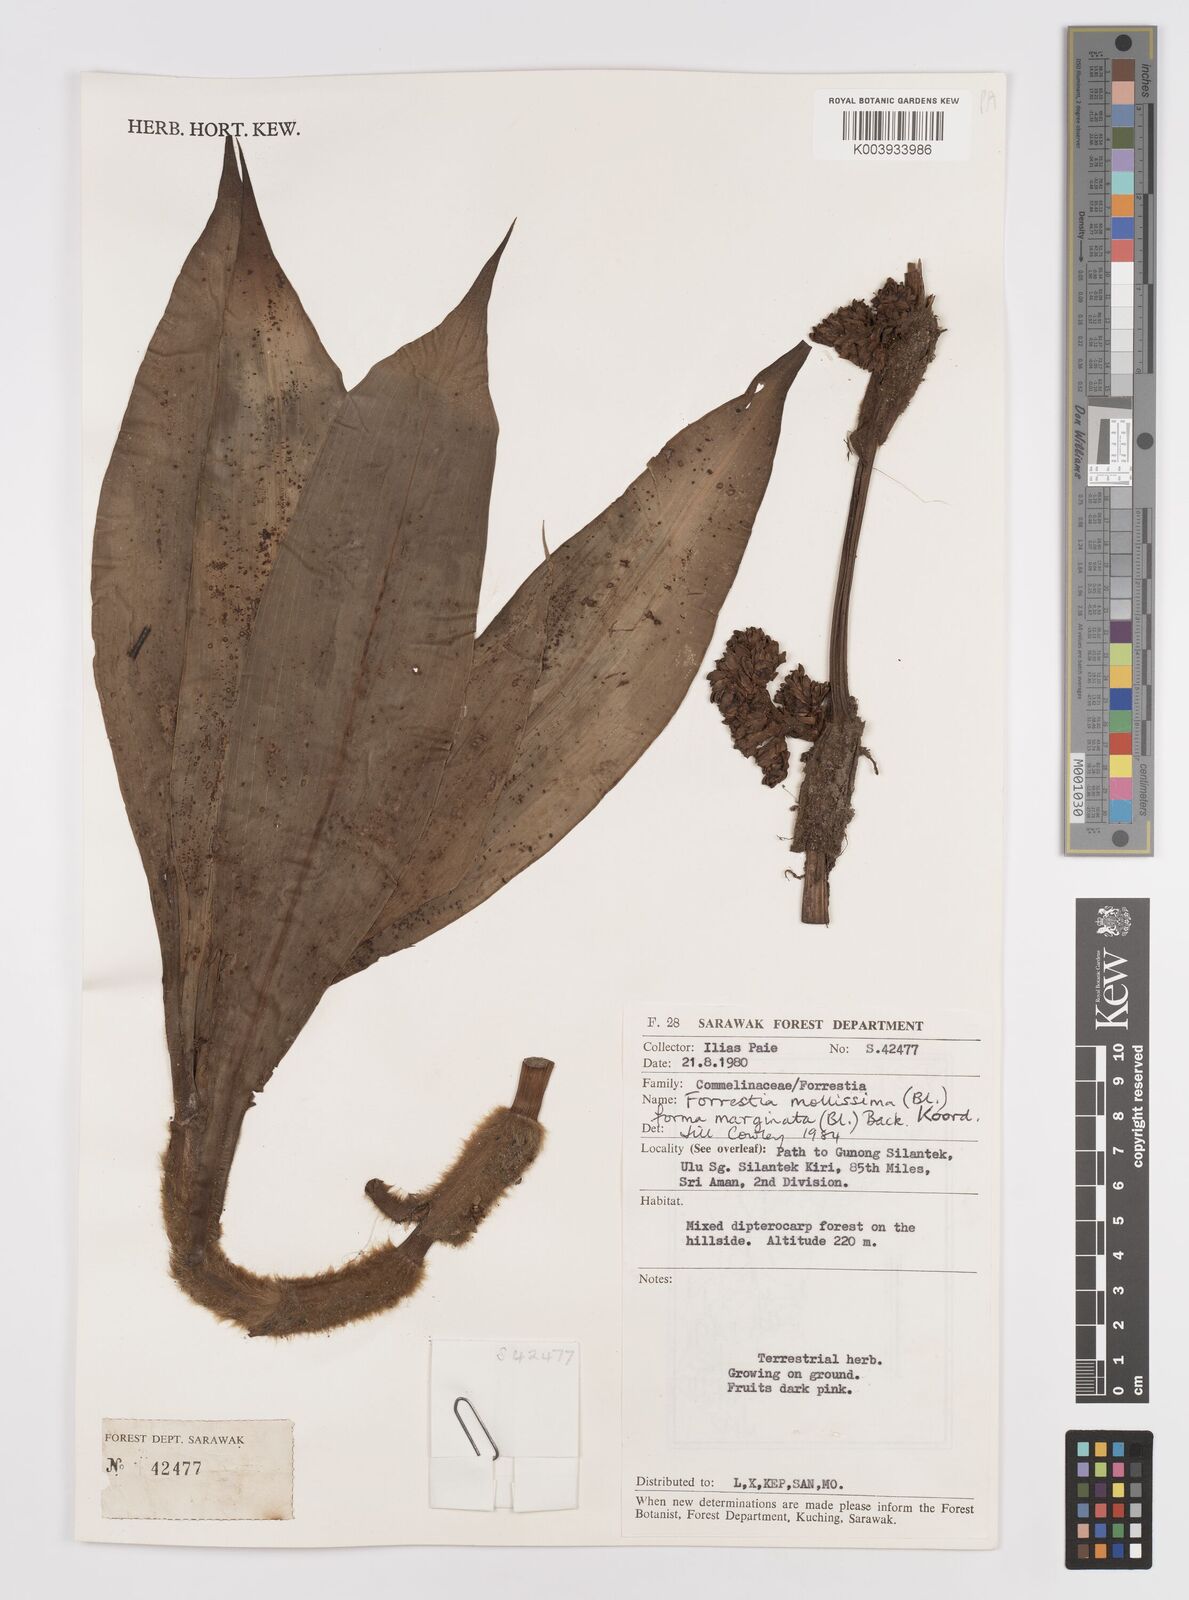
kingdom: Plantae
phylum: Tracheophyta
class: Liliopsida
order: Commelinales
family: Commelinaceae
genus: Amischotolype
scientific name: Amischotolype marginata
